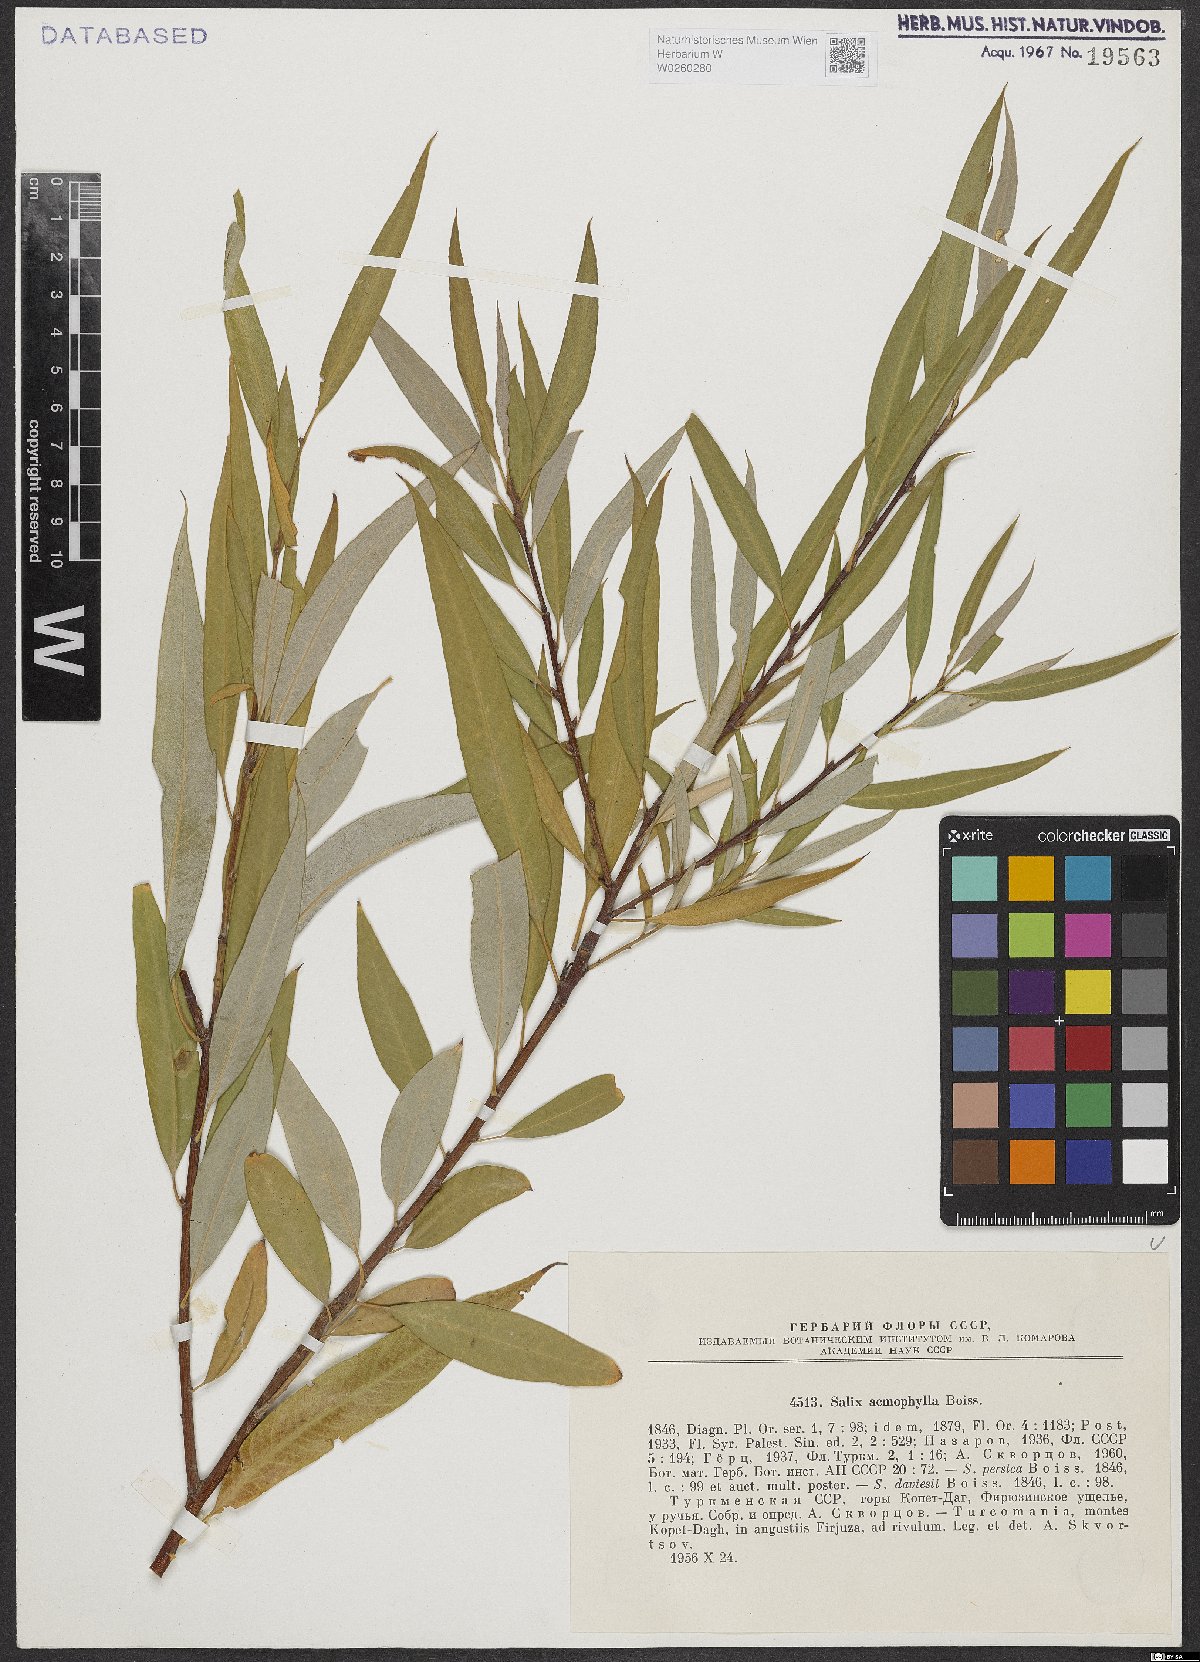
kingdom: Plantae
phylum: Tracheophyta
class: Magnoliopsida
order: Malpighiales
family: Salicaceae
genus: Salix
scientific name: Salix acmophylla
